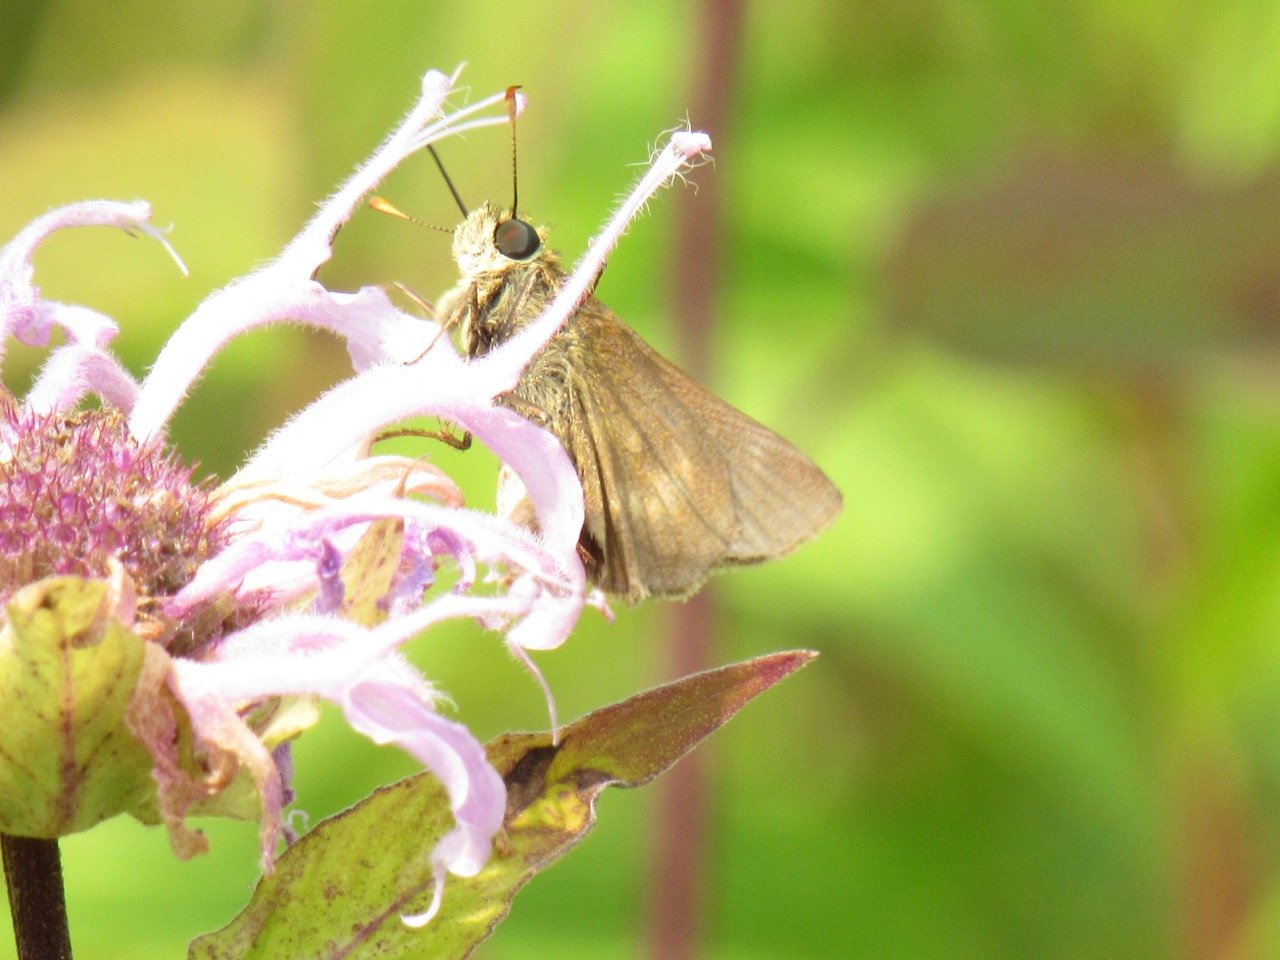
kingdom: Animalia
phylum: Arthropoda
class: Insecta
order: Lepidoptera
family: Hesperiidae
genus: Polites
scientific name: Polites egeremet
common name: Northern Broken-Dash
